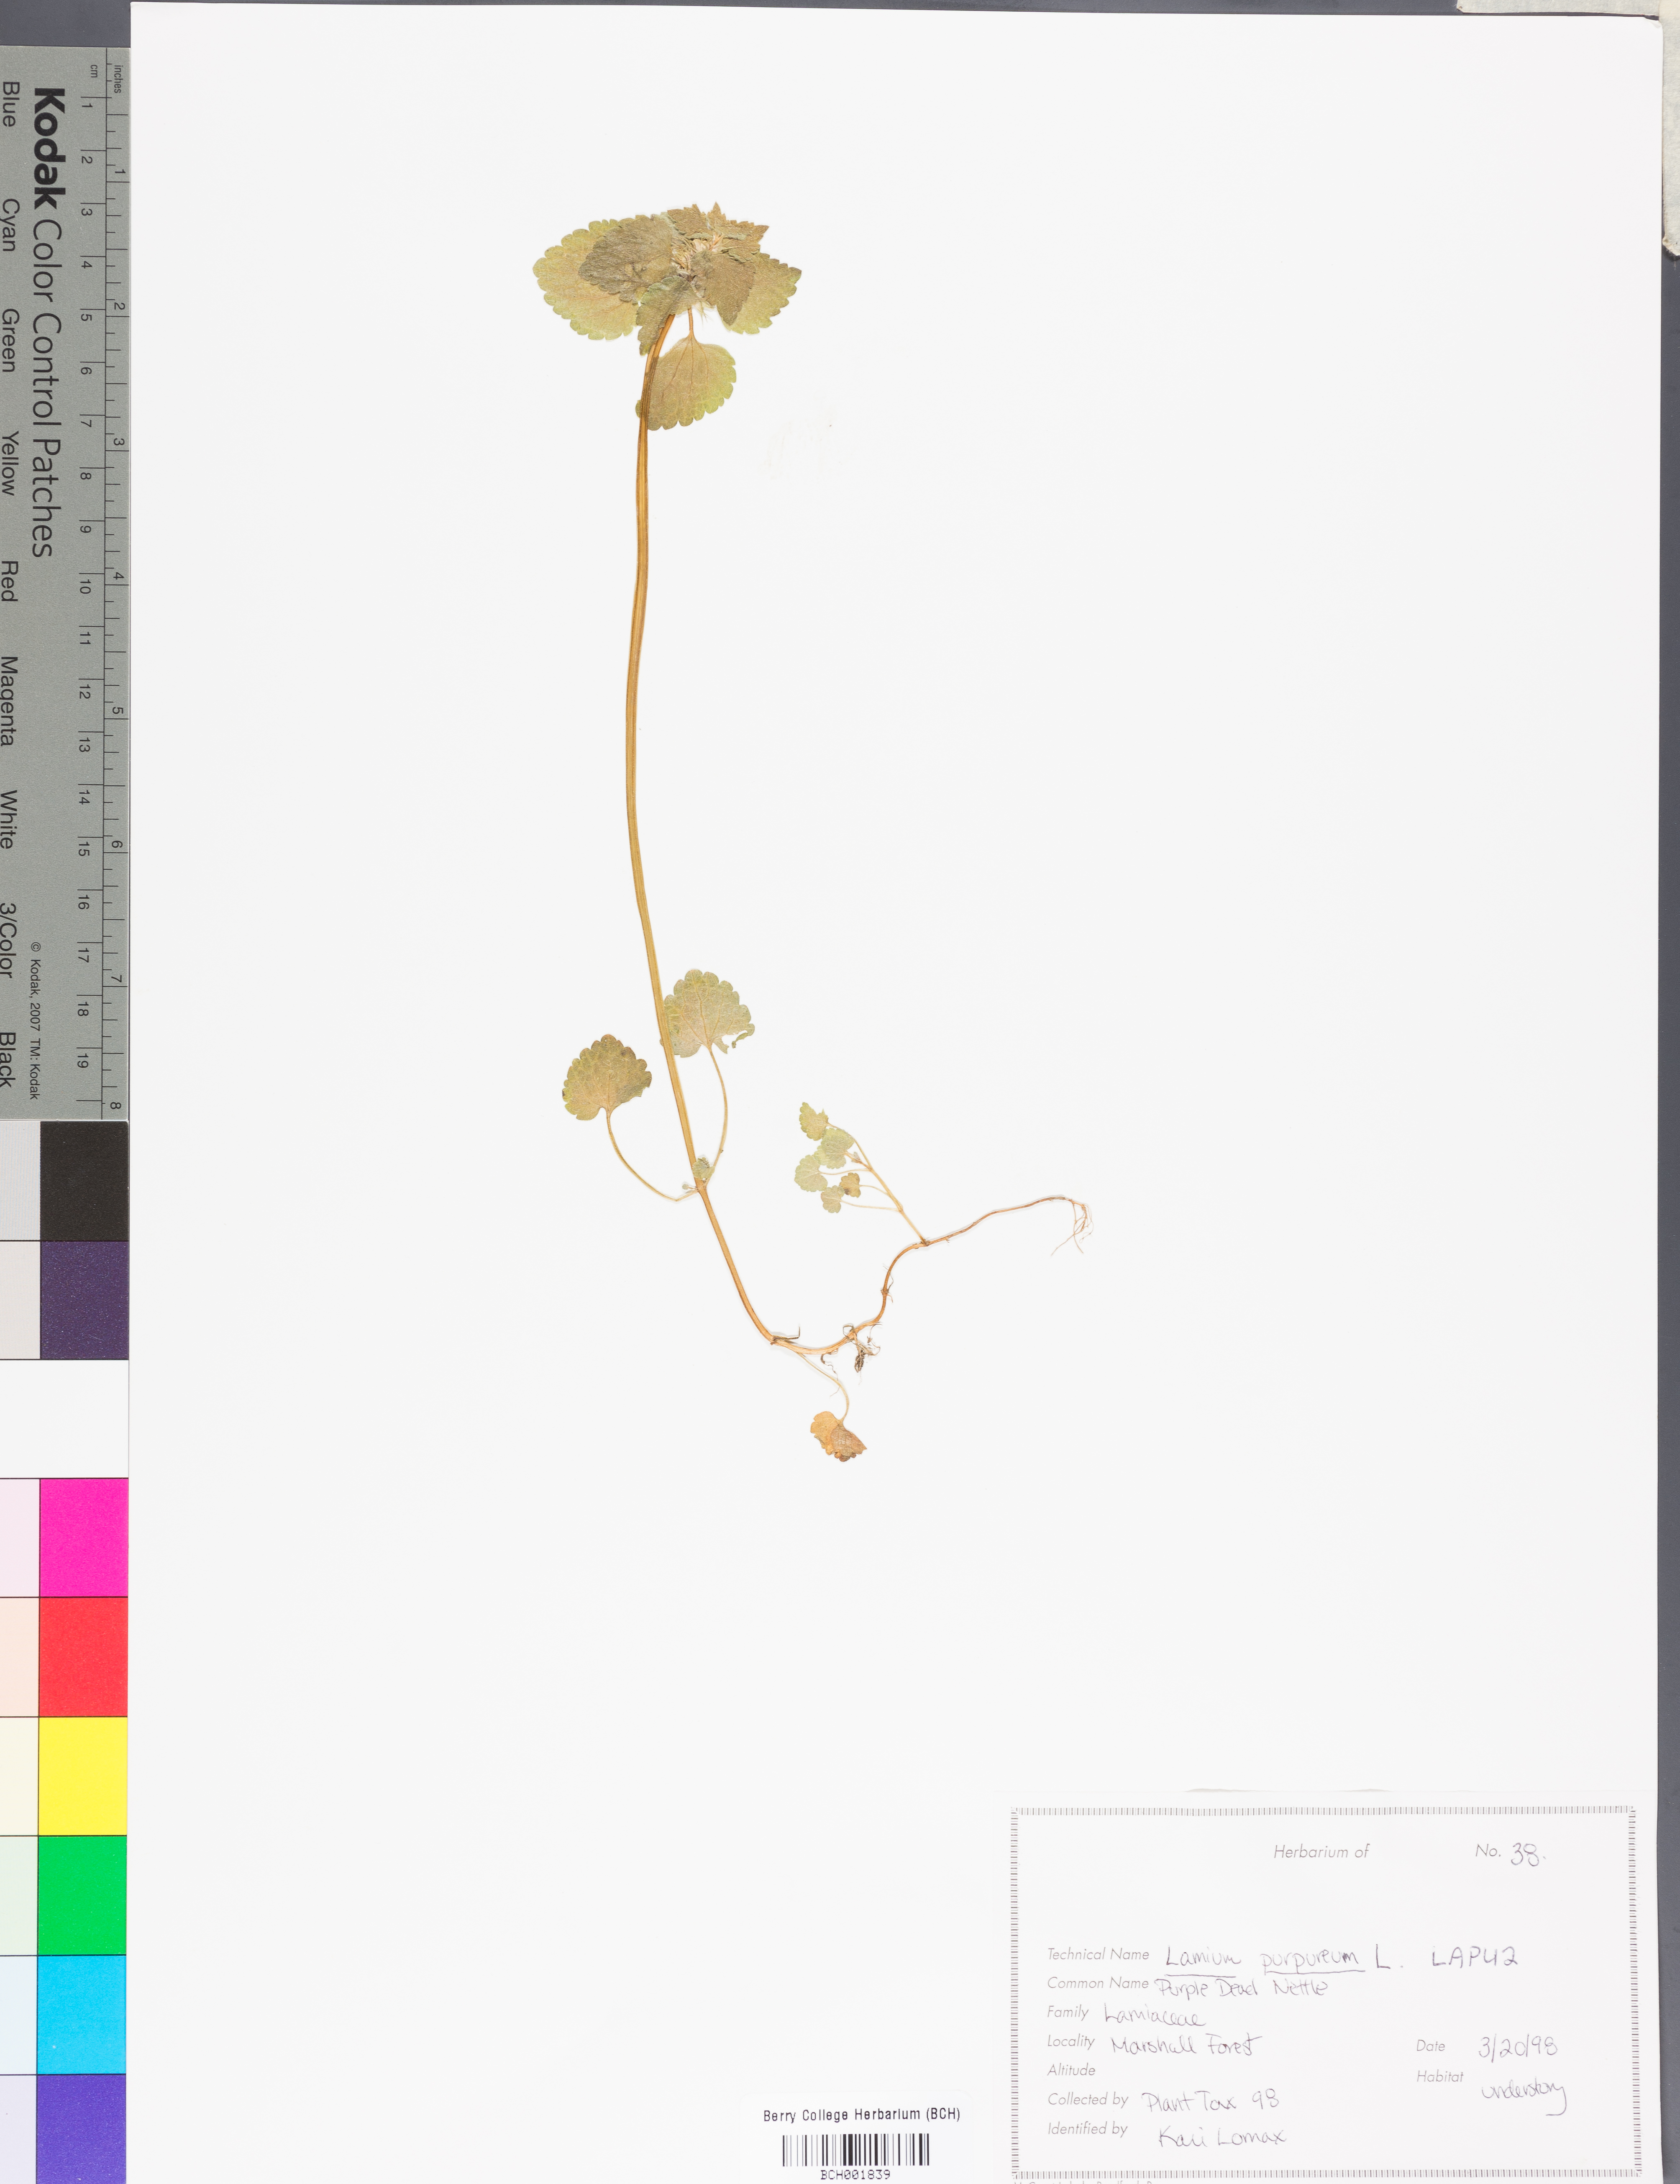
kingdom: Plantae
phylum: Tracheophyta
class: Magnoliopsida
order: Lamiales
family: Lamiaceae
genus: Lamium
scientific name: Lamium purpureum
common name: Red dead-nettle
